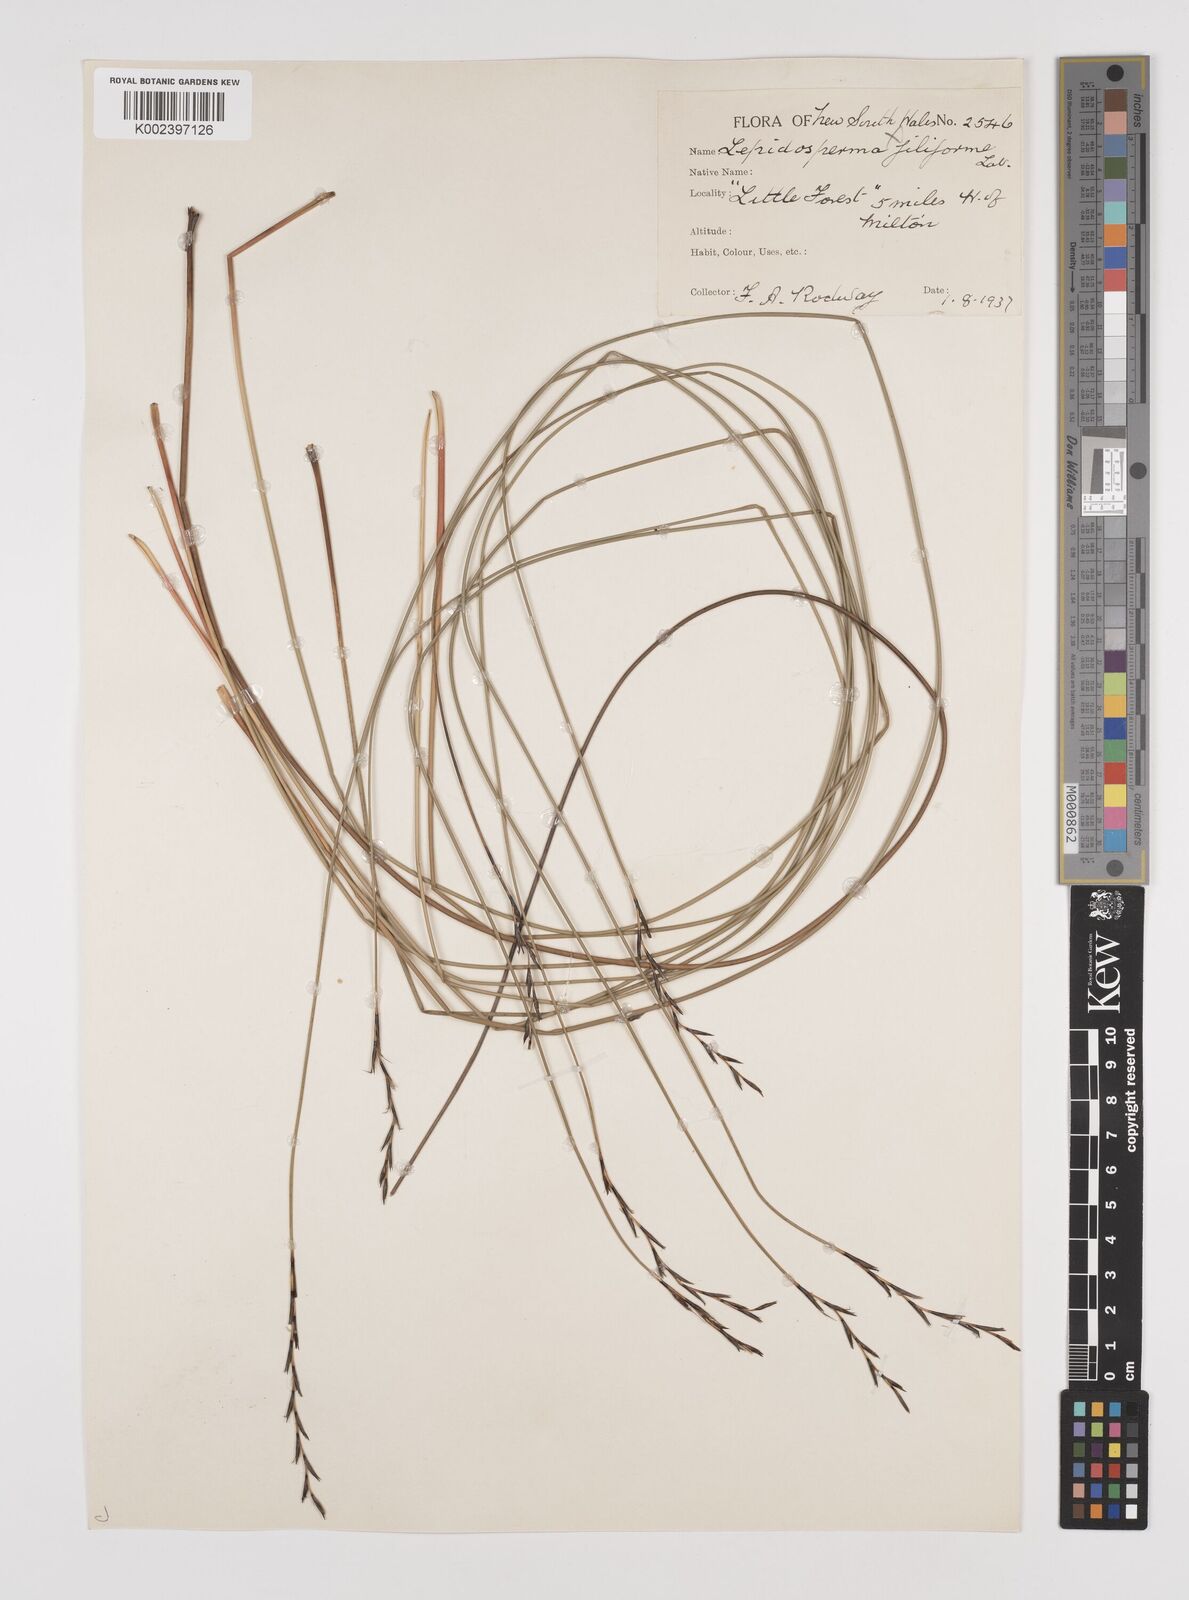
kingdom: Plantae
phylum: Tracheophyta
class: Liliopsida
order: Poales
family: Cyperaceae
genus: Lepidosperma
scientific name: Lepidosperma flexuosum
